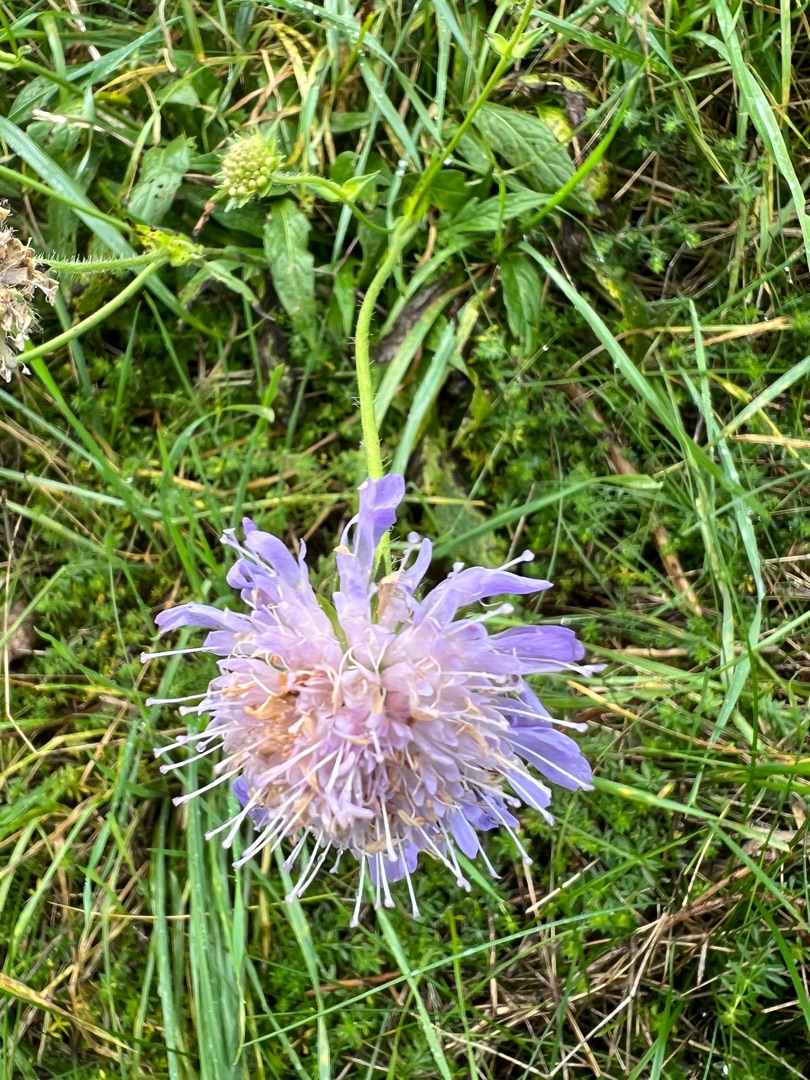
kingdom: Plantae
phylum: Tracheophyta
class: Magnoliopsida
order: Dipsacales
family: Caprifoliaceae
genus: Knautia
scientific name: Knautia arvensis
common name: Blåhat
